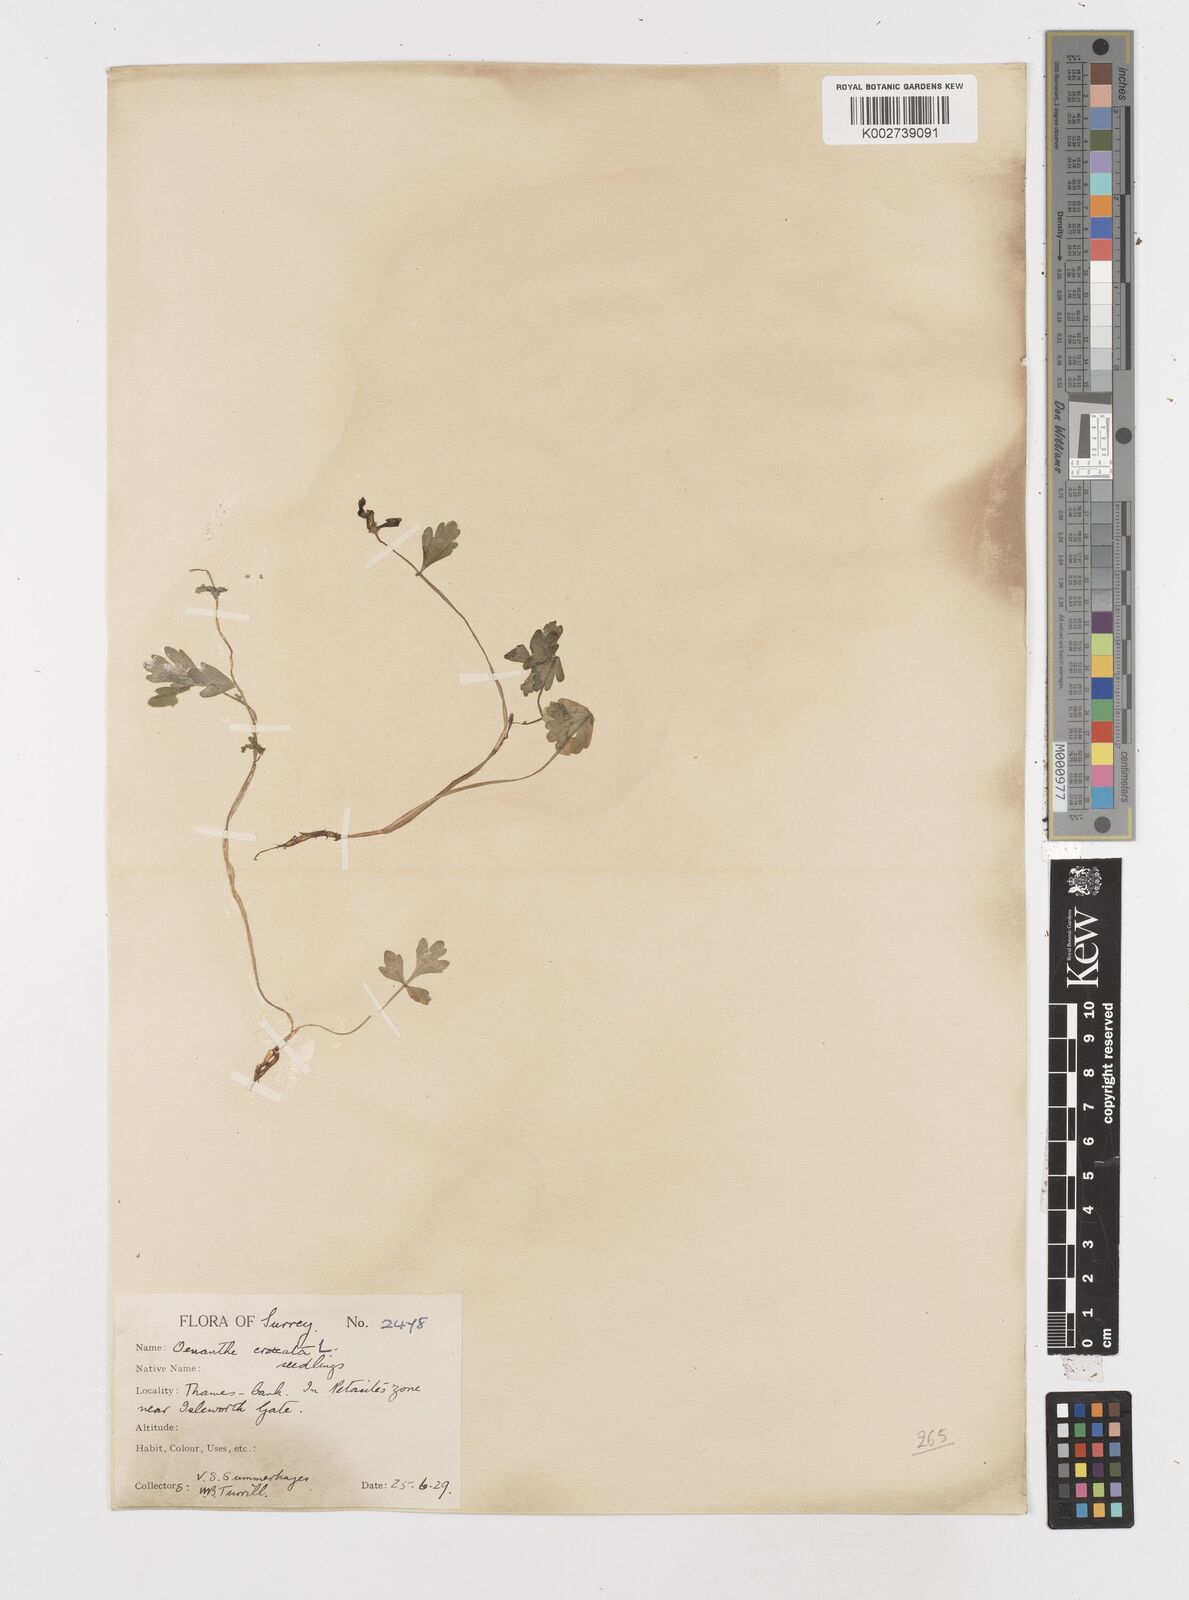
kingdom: Plantae
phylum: Tracheophyta
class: Magnoliopsida
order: Apiales
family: Apiaceae
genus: Oenanthe
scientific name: Oenanthe crocata
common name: Hemlock water-dropwort
